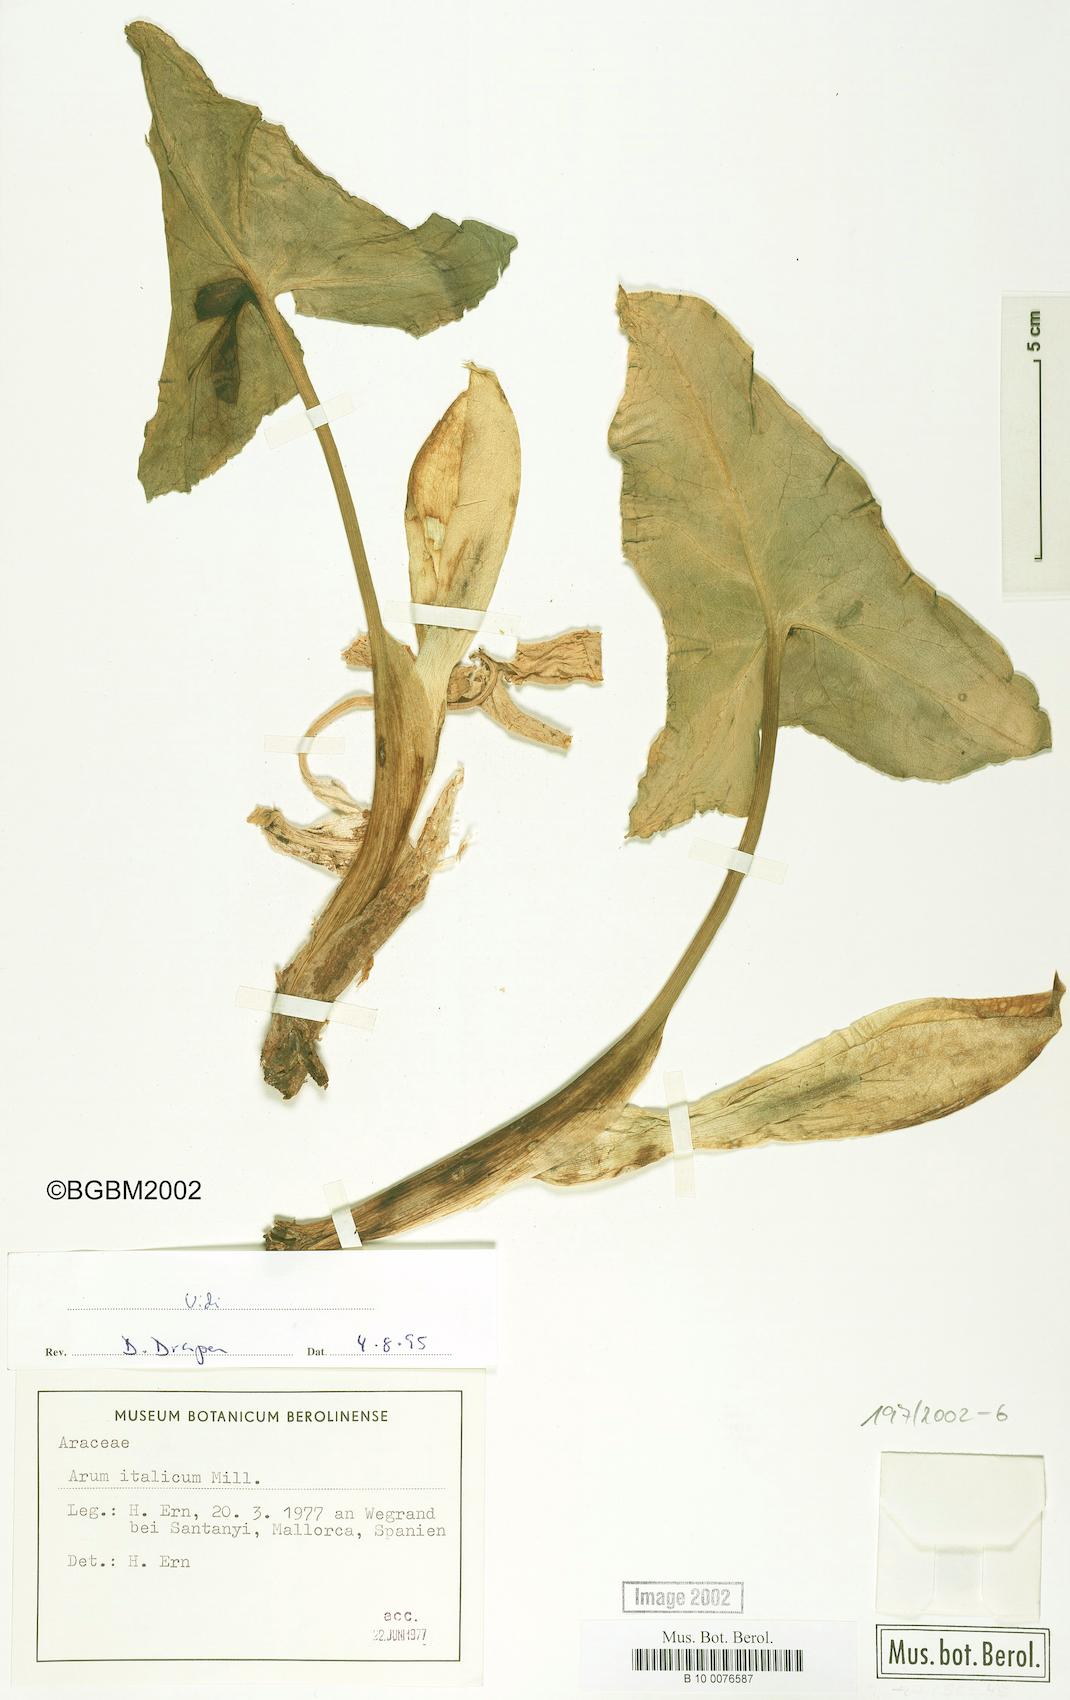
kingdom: Plantae
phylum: Tracheophyta
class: Liliopsida
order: Alismatales
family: Araceae
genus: Arum
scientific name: Arum italicum
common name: Italian lords-and-ladies
